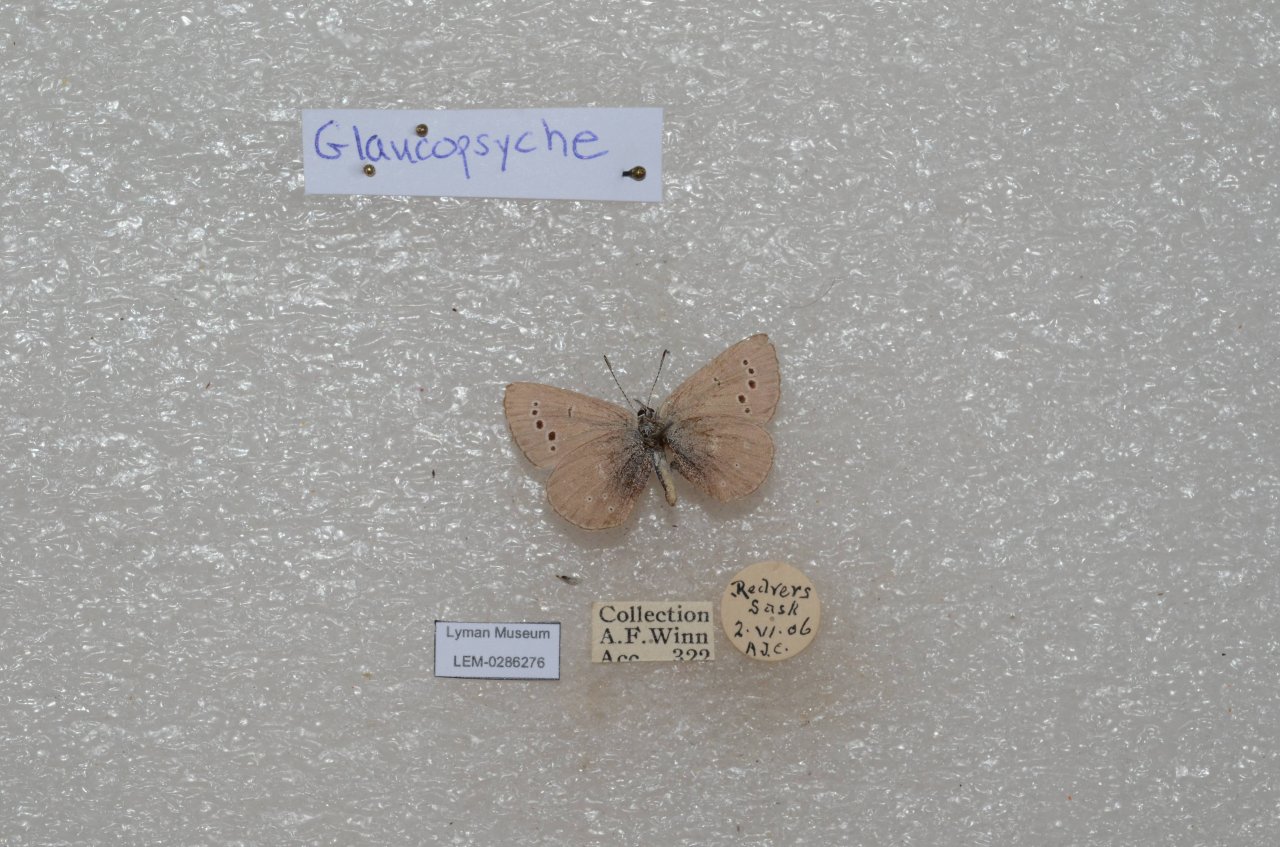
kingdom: Animalia
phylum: Arthropoda
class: Insecta
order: Lepidoptera
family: Lycaenidae
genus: Glaucopsyche
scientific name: Glaucopsyche lygdamus
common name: Silvery Blue
